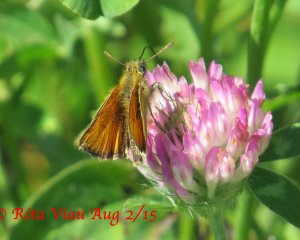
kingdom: Animalia
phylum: Arthropoda
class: Insecta
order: Lepidoptera
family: Hesperiidae
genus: Thymelicus
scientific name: Thymelicus lineola
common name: European Skipper
